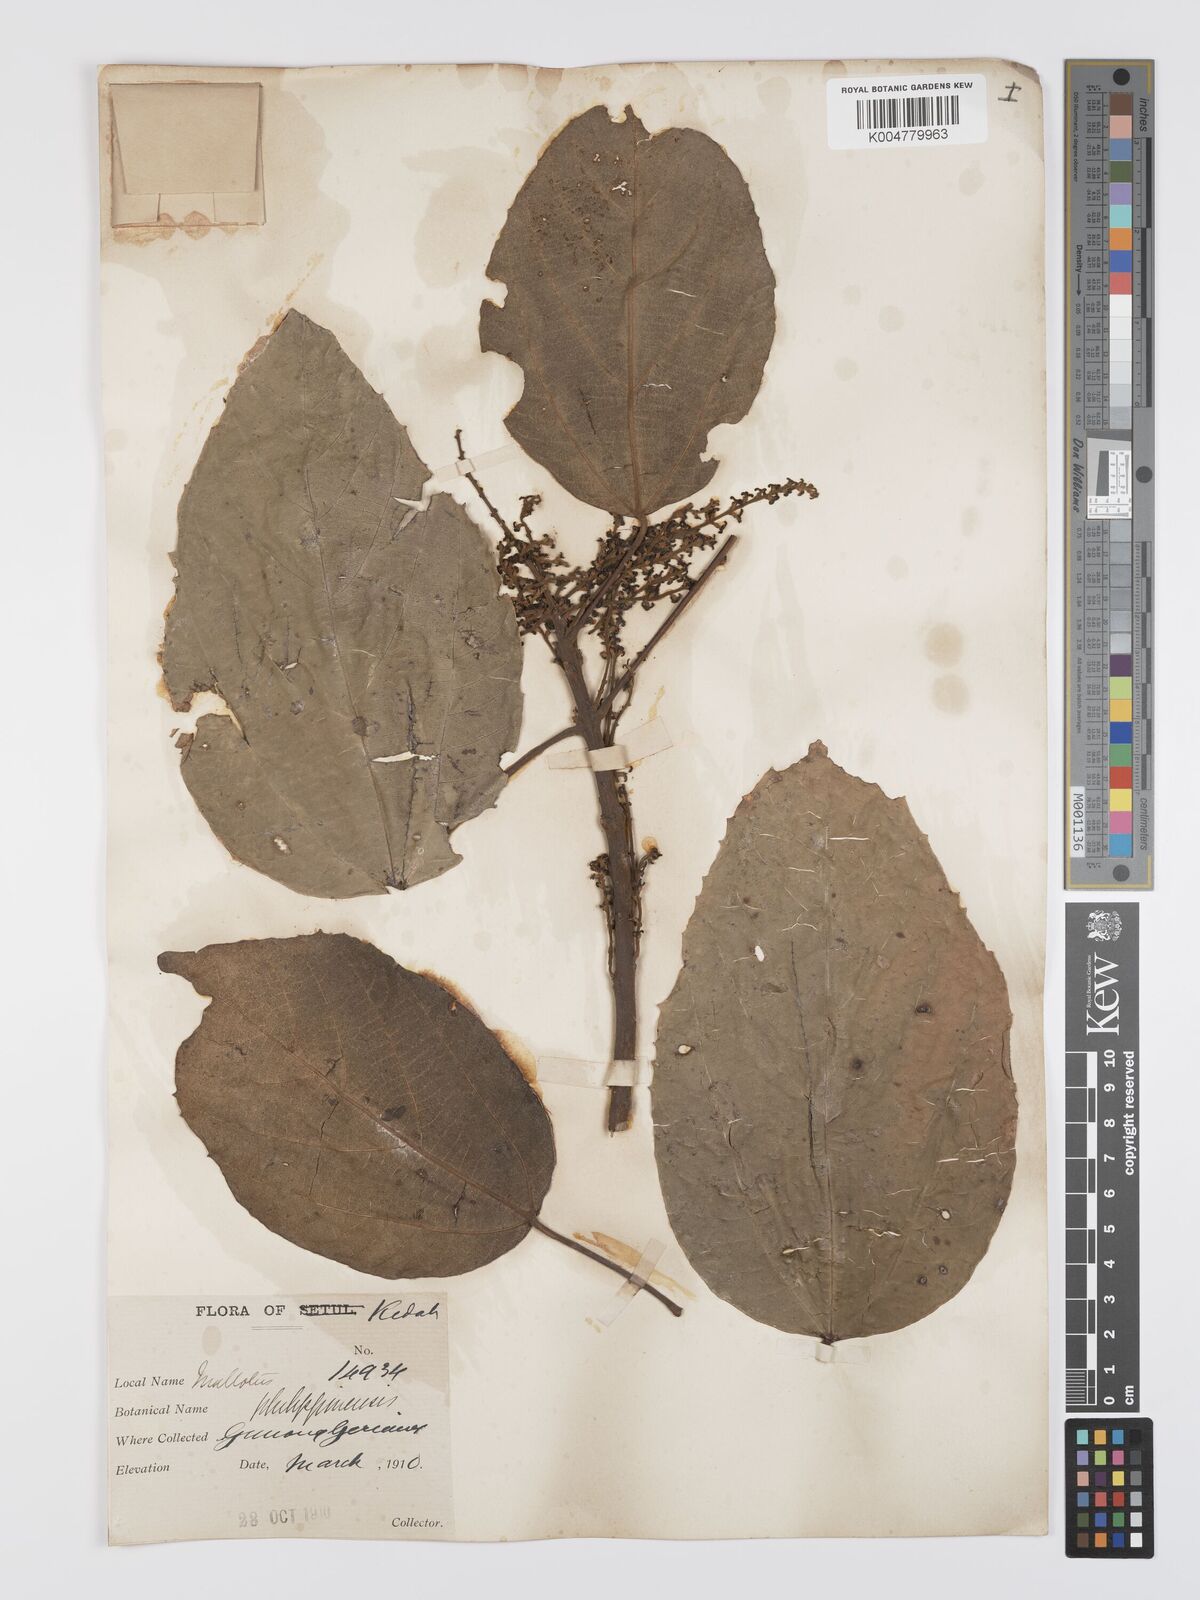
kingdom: Plantae
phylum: Tracheophyta
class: Magnoliopsida
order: Malpighiales
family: Euphorbiaceae
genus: Mallotus
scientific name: Mallotus philippensis
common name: Kamala tree
